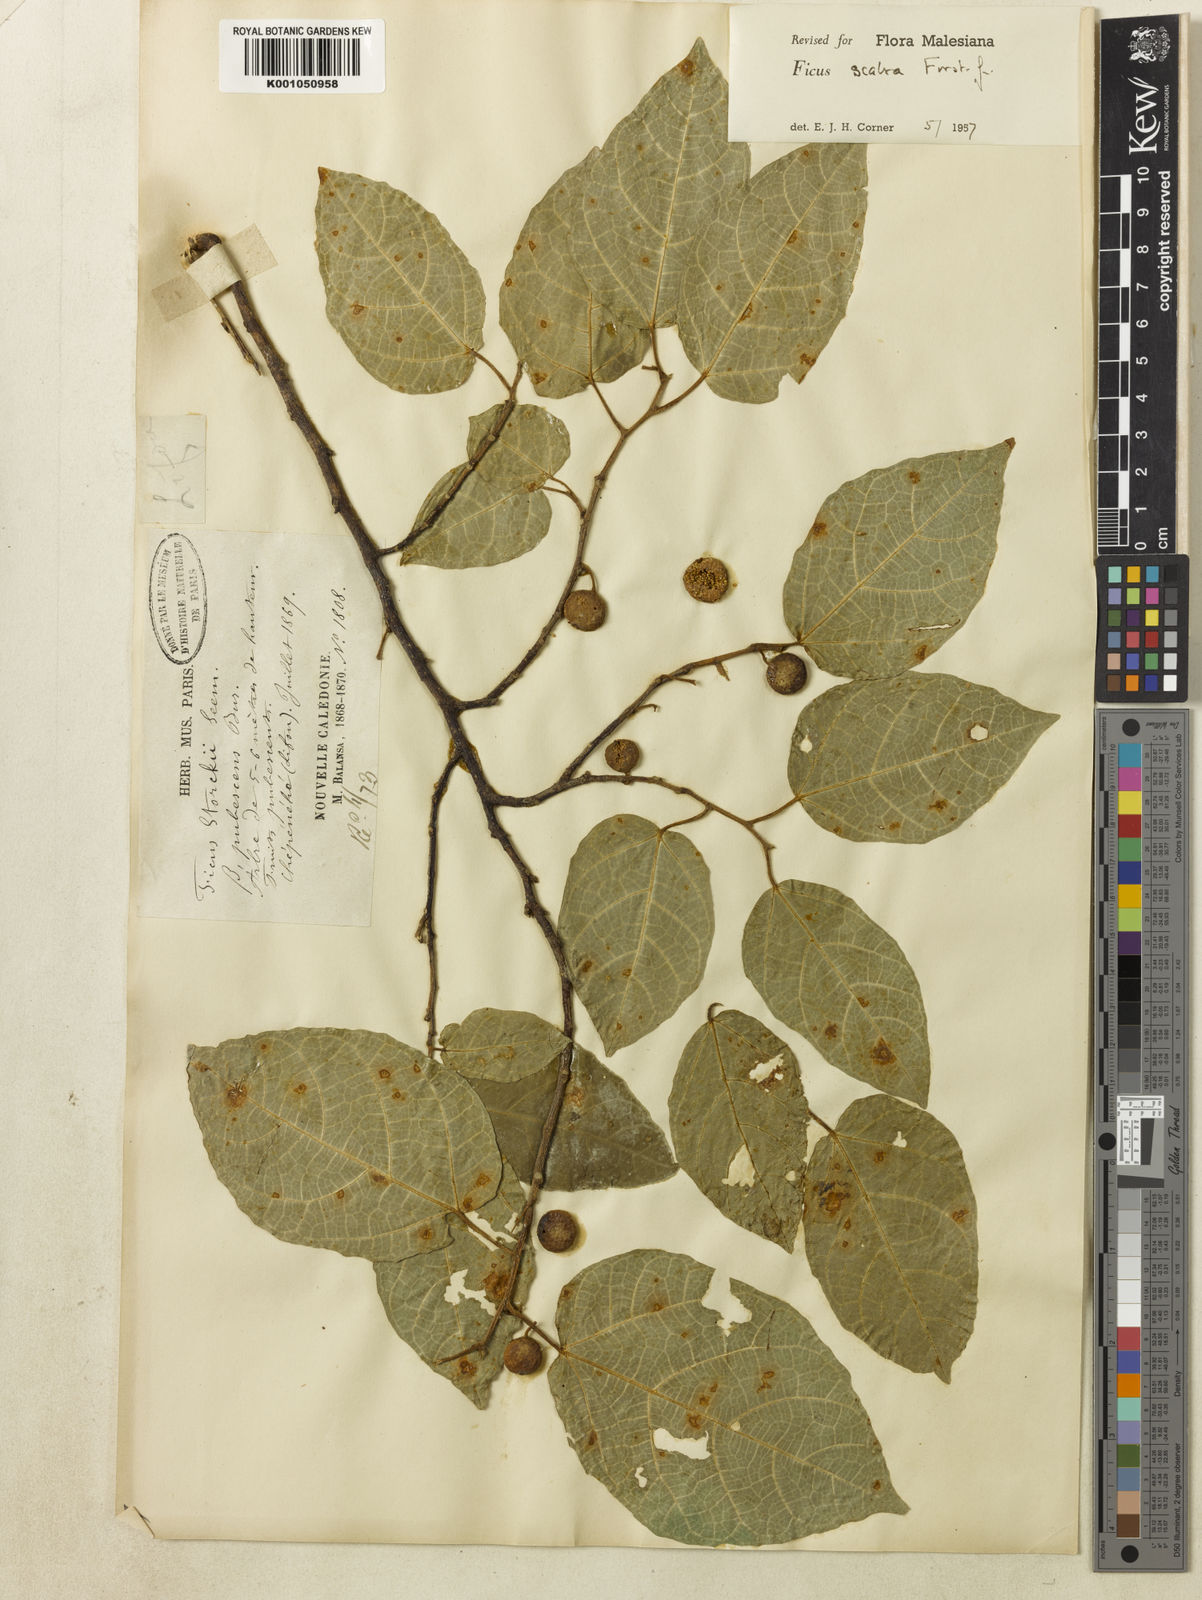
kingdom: Plantae
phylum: Tracheophyta
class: Magnoliopsida
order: Rosales
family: Moraceae
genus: Ficus
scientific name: Ficus scabra
